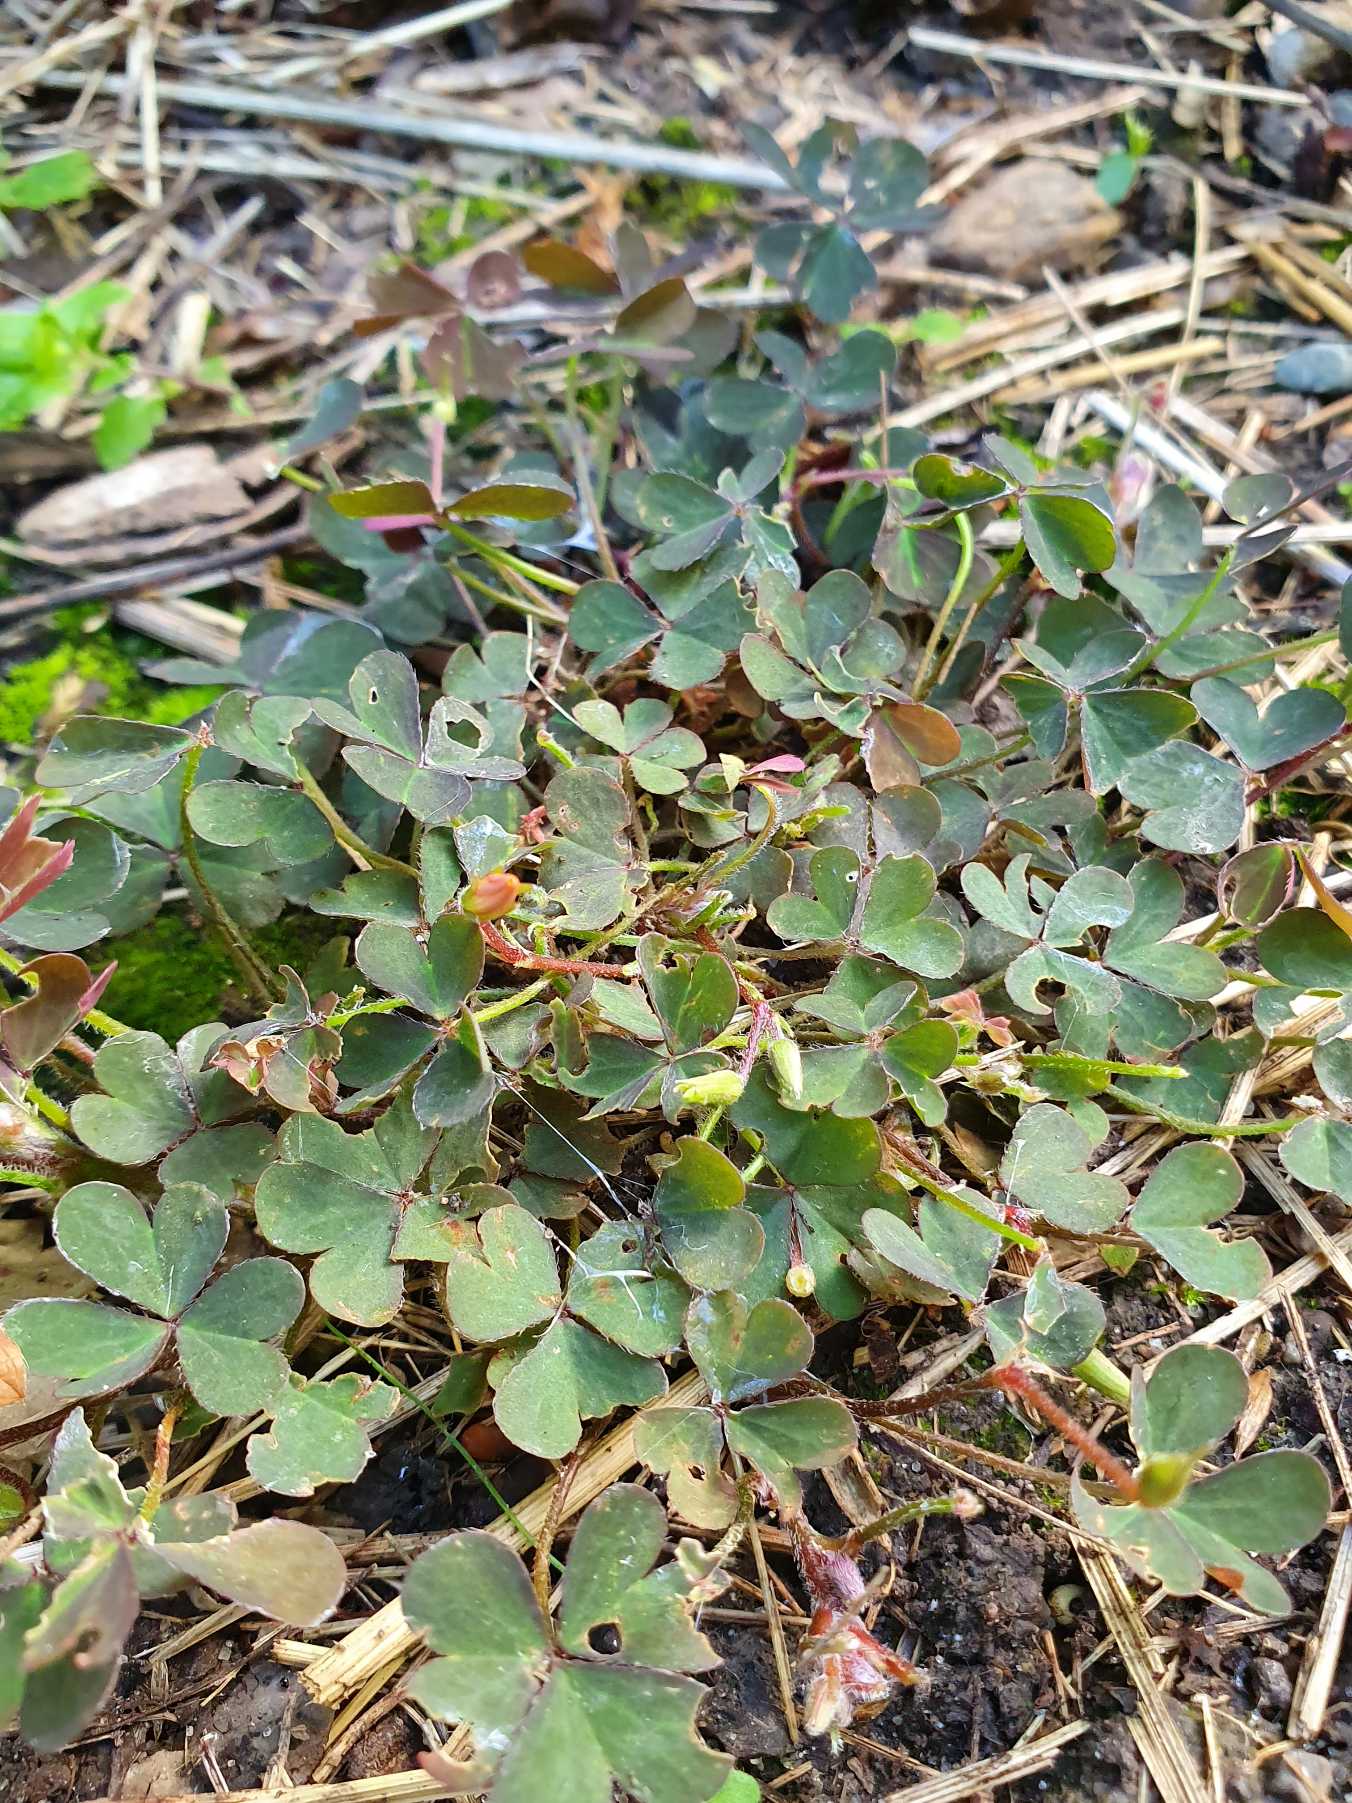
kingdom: Plantae
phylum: Tracheophyta
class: Magnoliopsida
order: Oxalidales
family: Oxalidaceae
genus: Oxalis
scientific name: Oxalis corniculata
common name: Nedliggende surkløver
